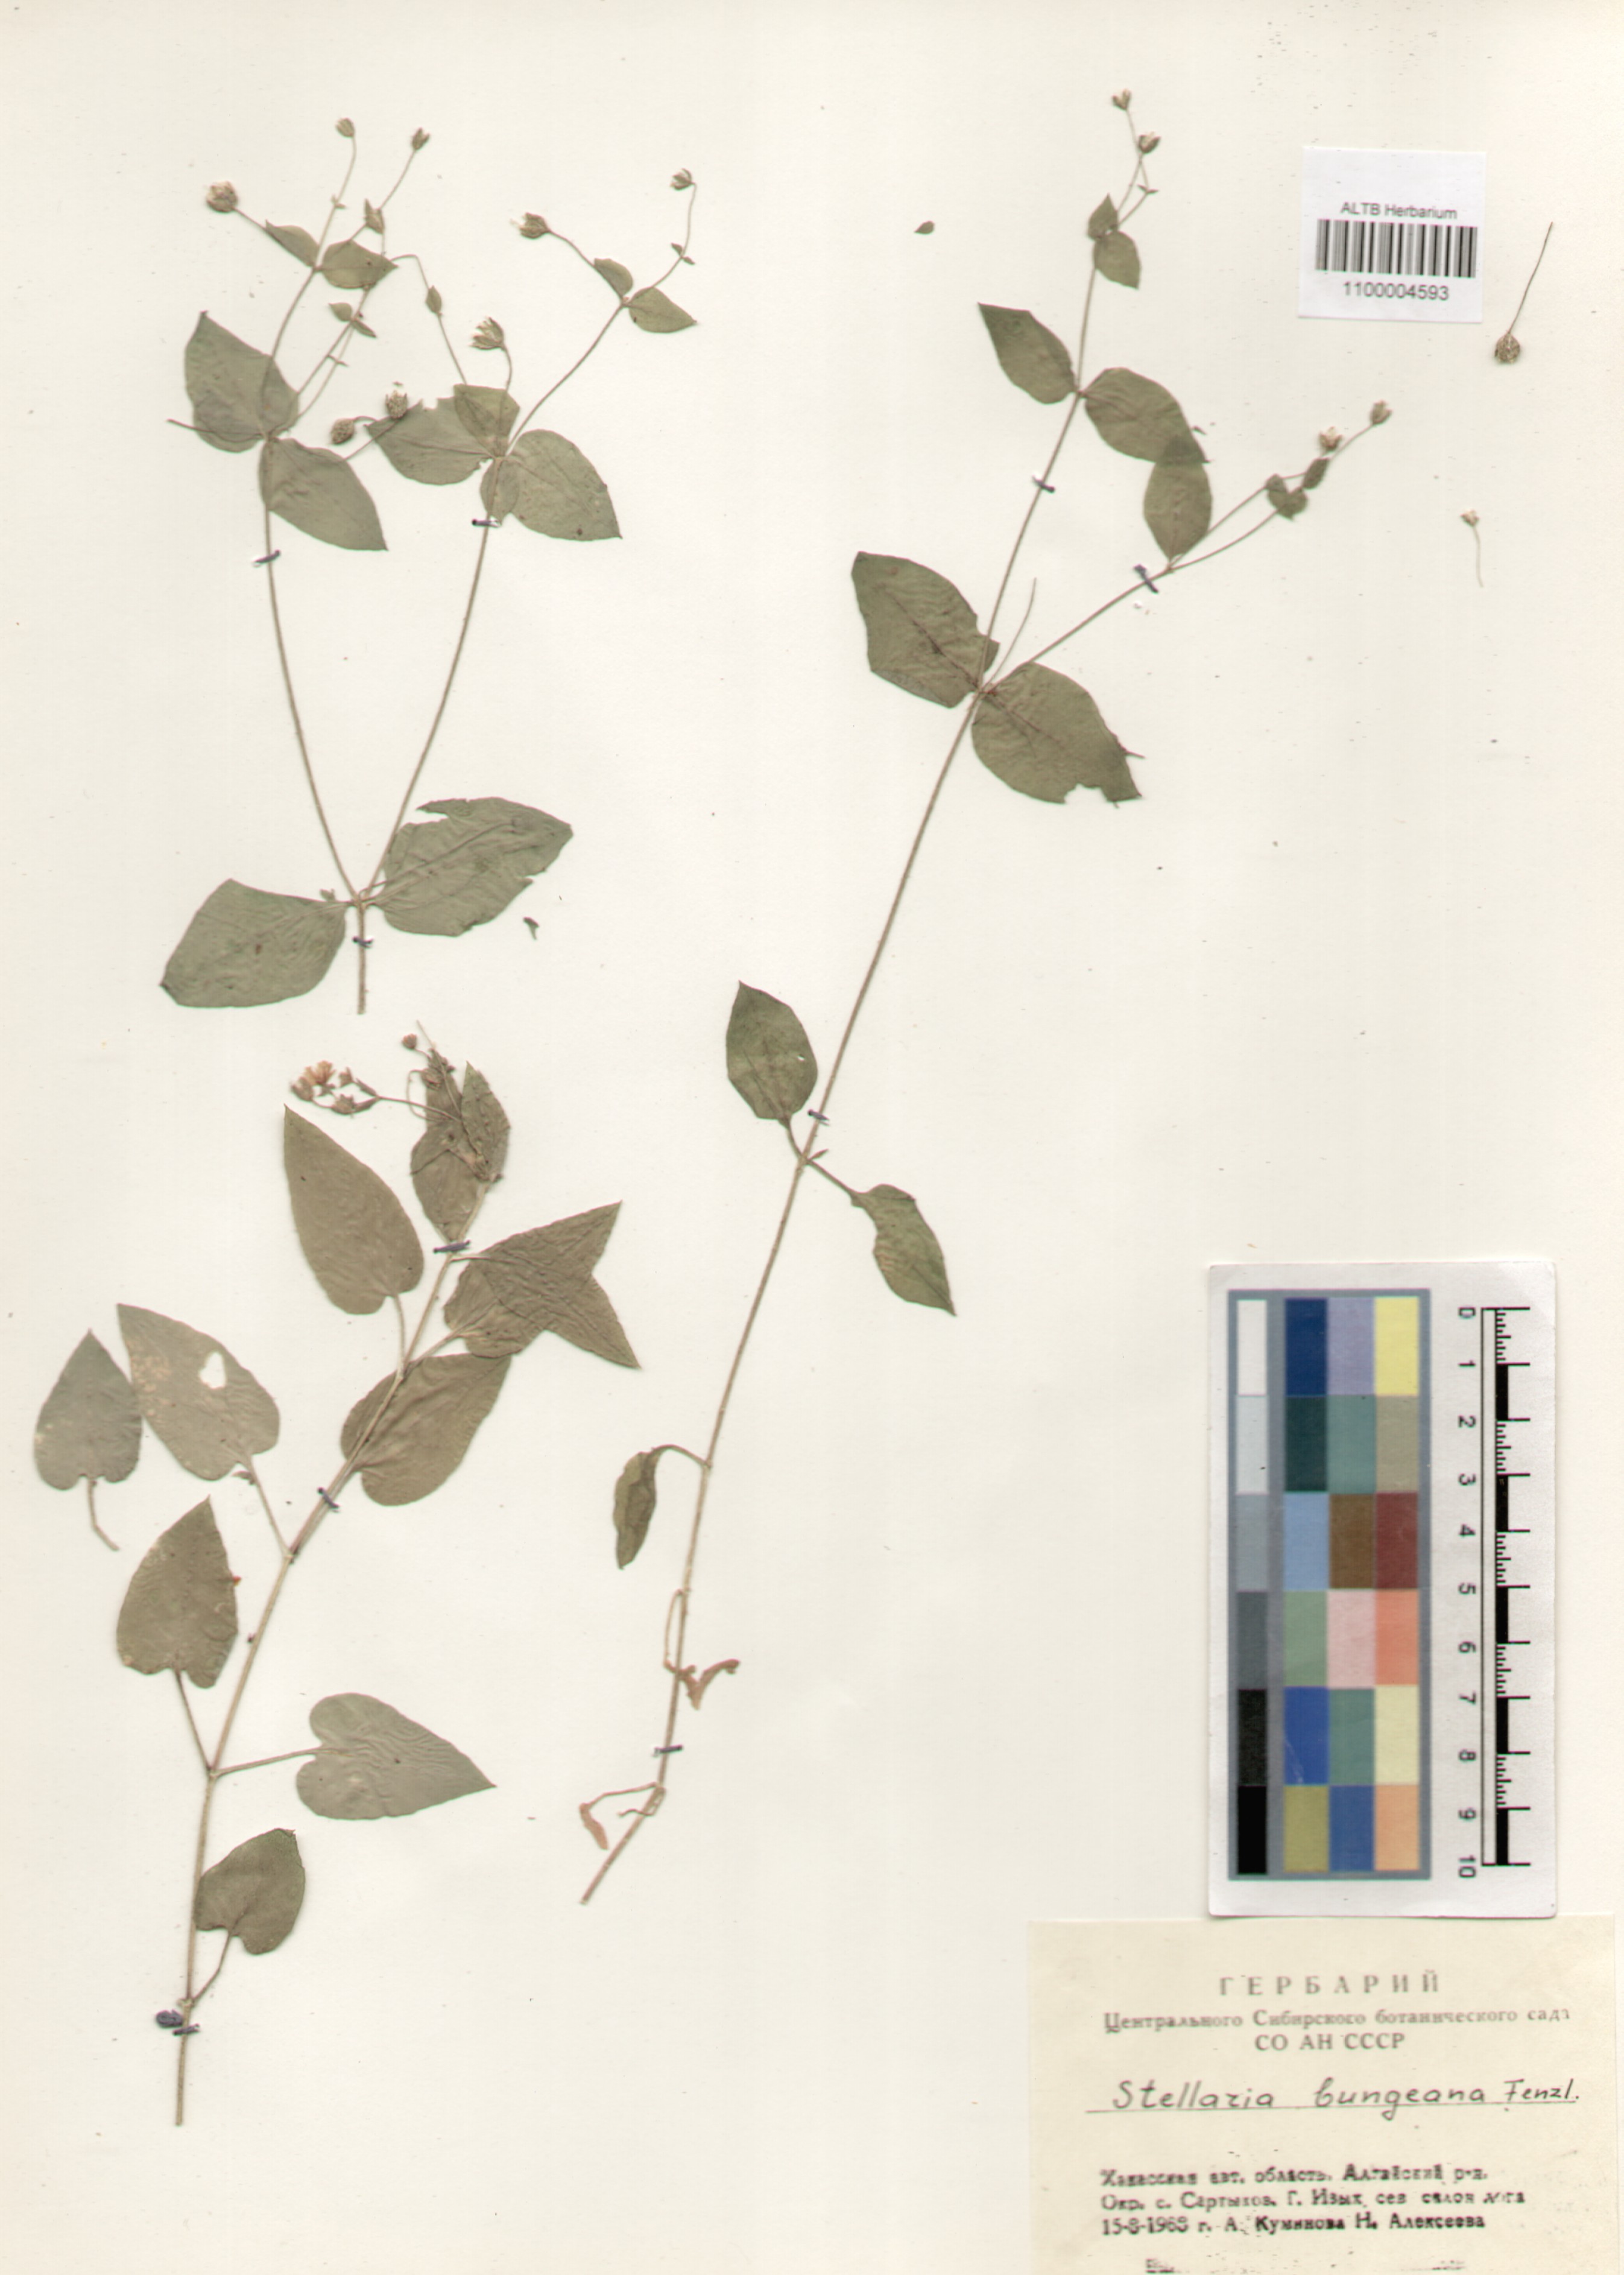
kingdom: Plantae
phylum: Tracheophyta
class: Magnoliopsida
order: Caryophyllales
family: Caryophyllaceae
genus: Stellaria
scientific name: Stellaria bungeana
